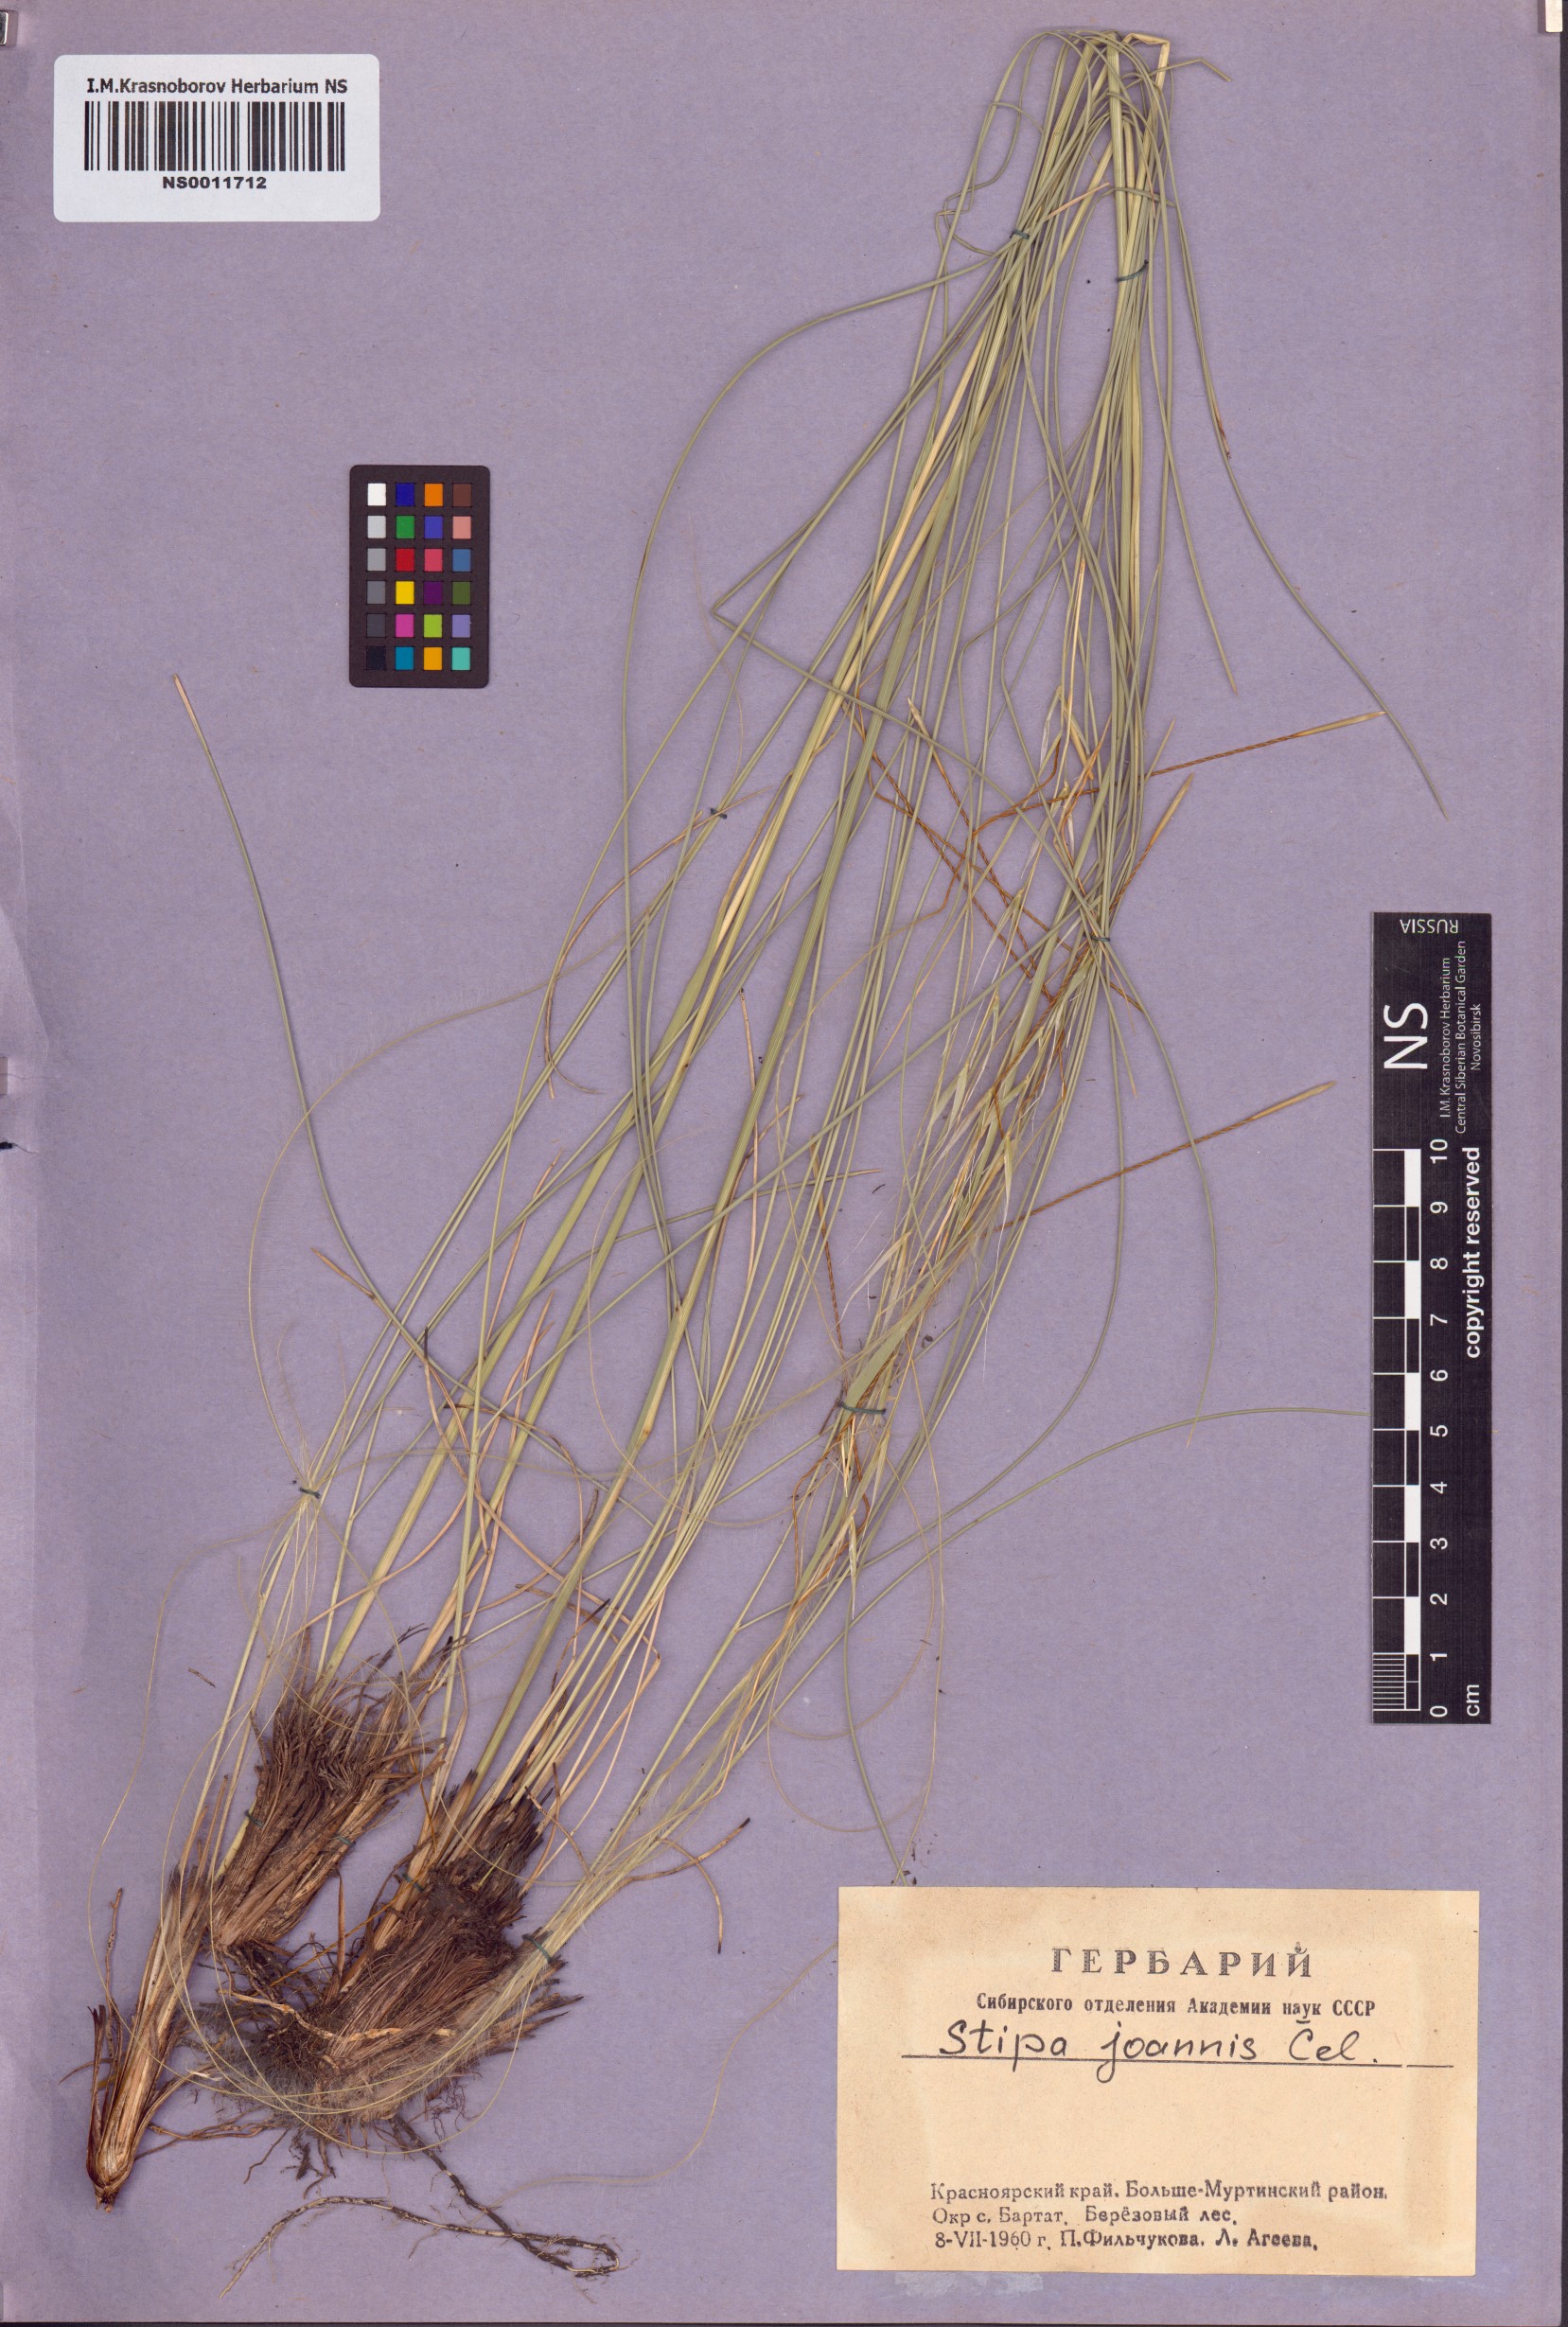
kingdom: Plantae
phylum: Tracheophyta
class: Liliopsida
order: Poales
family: Poaceae
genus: Stipa
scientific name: Stipa pennata
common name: European feather grass
